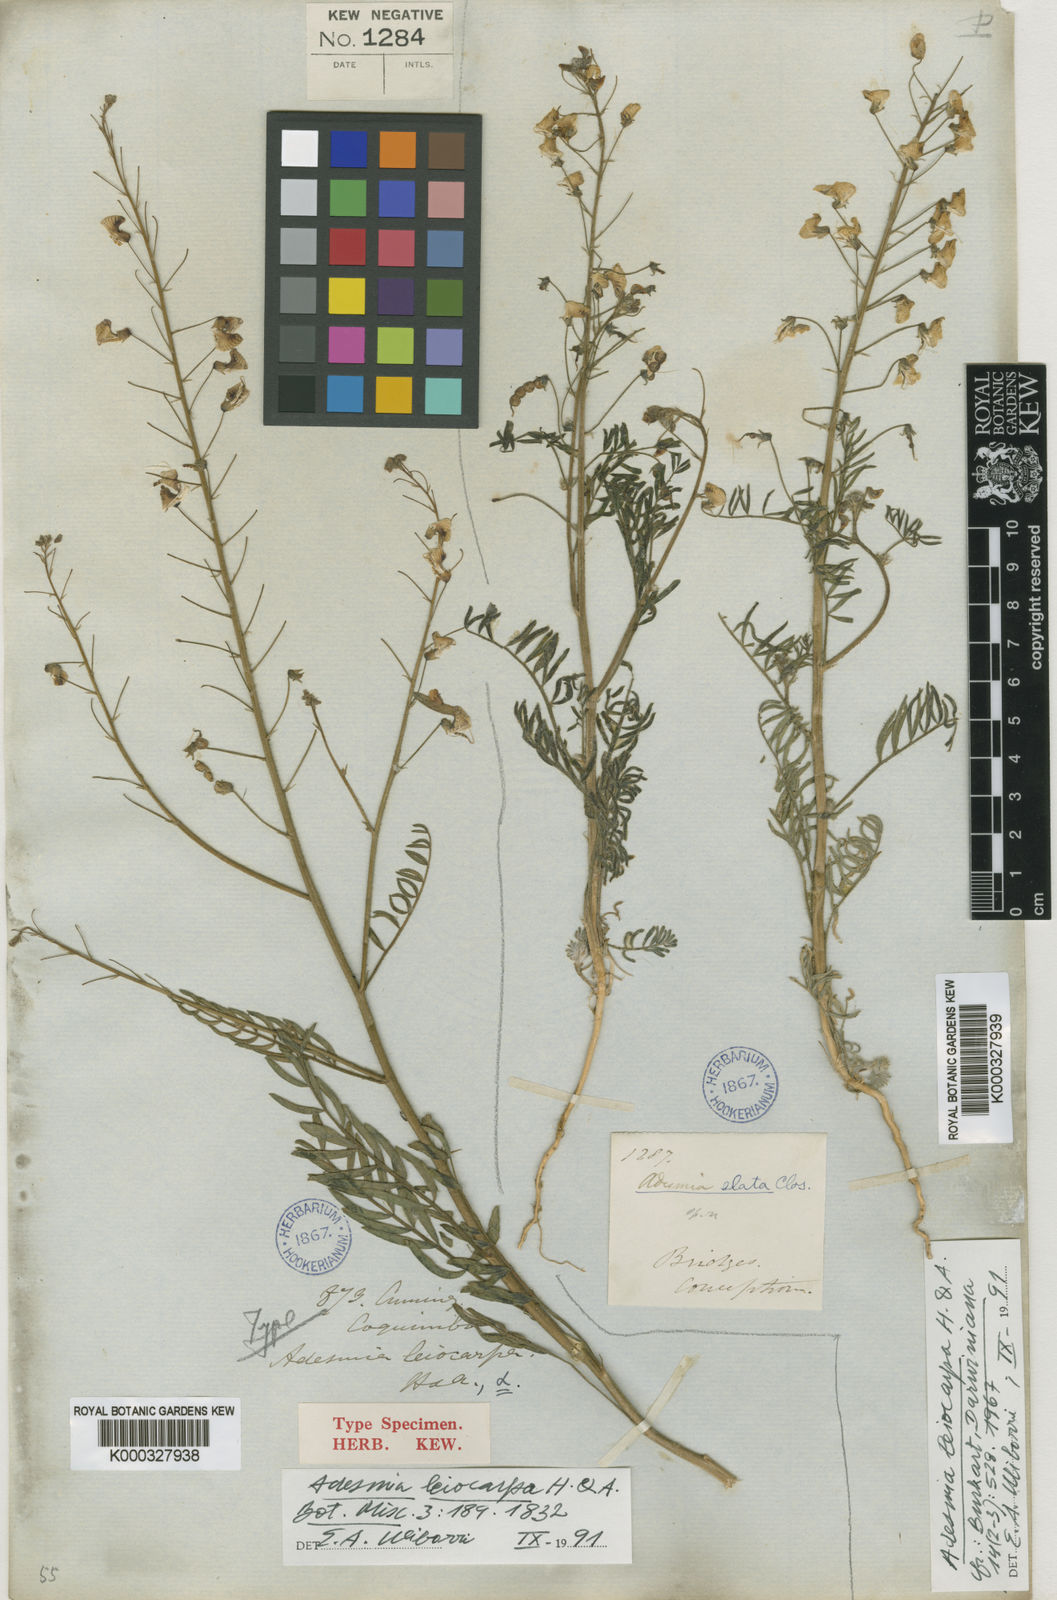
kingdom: Plantae
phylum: Tracheophyta
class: Magnoliopsida
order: Fabales
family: Fabaceae
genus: Adesmia
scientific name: Adesmia leiocarpa
